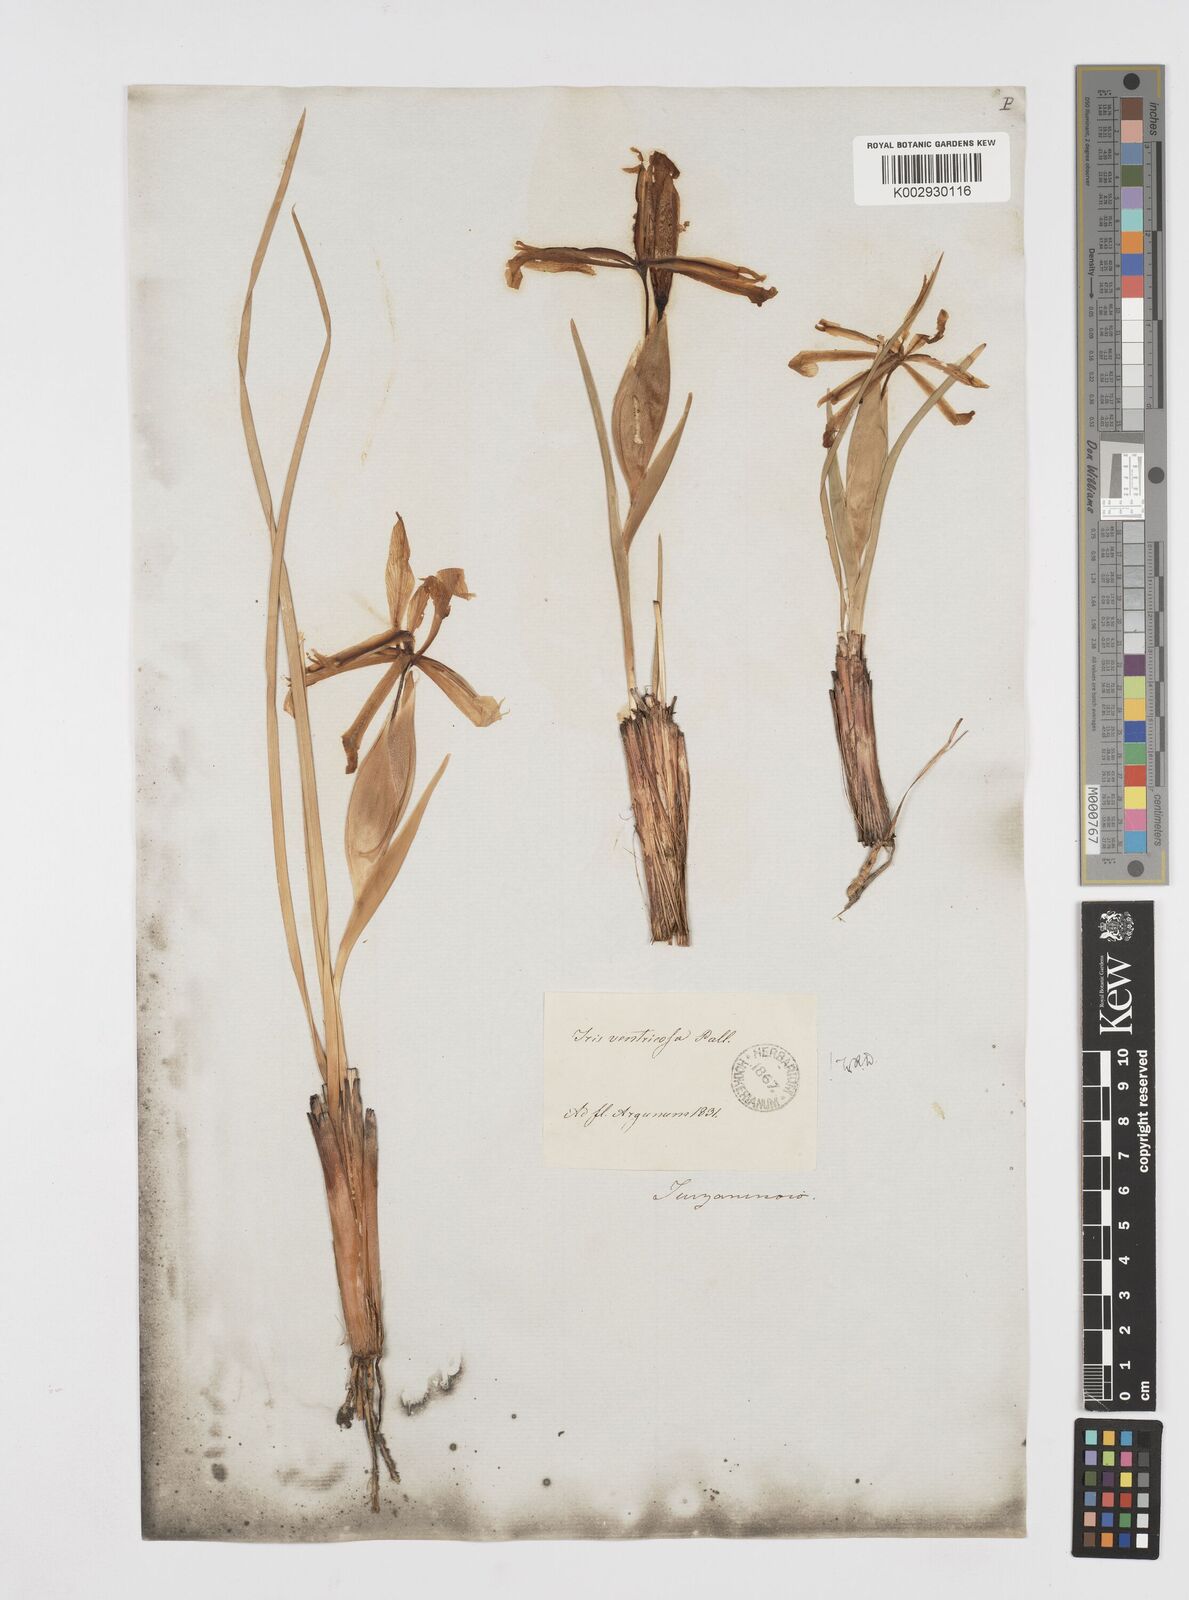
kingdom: Plantae
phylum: Tracheophyta
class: Liliopsida
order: Asparagales
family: Iridaceae
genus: Iris
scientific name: Iris ventricosa
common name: Purple-flower iris
